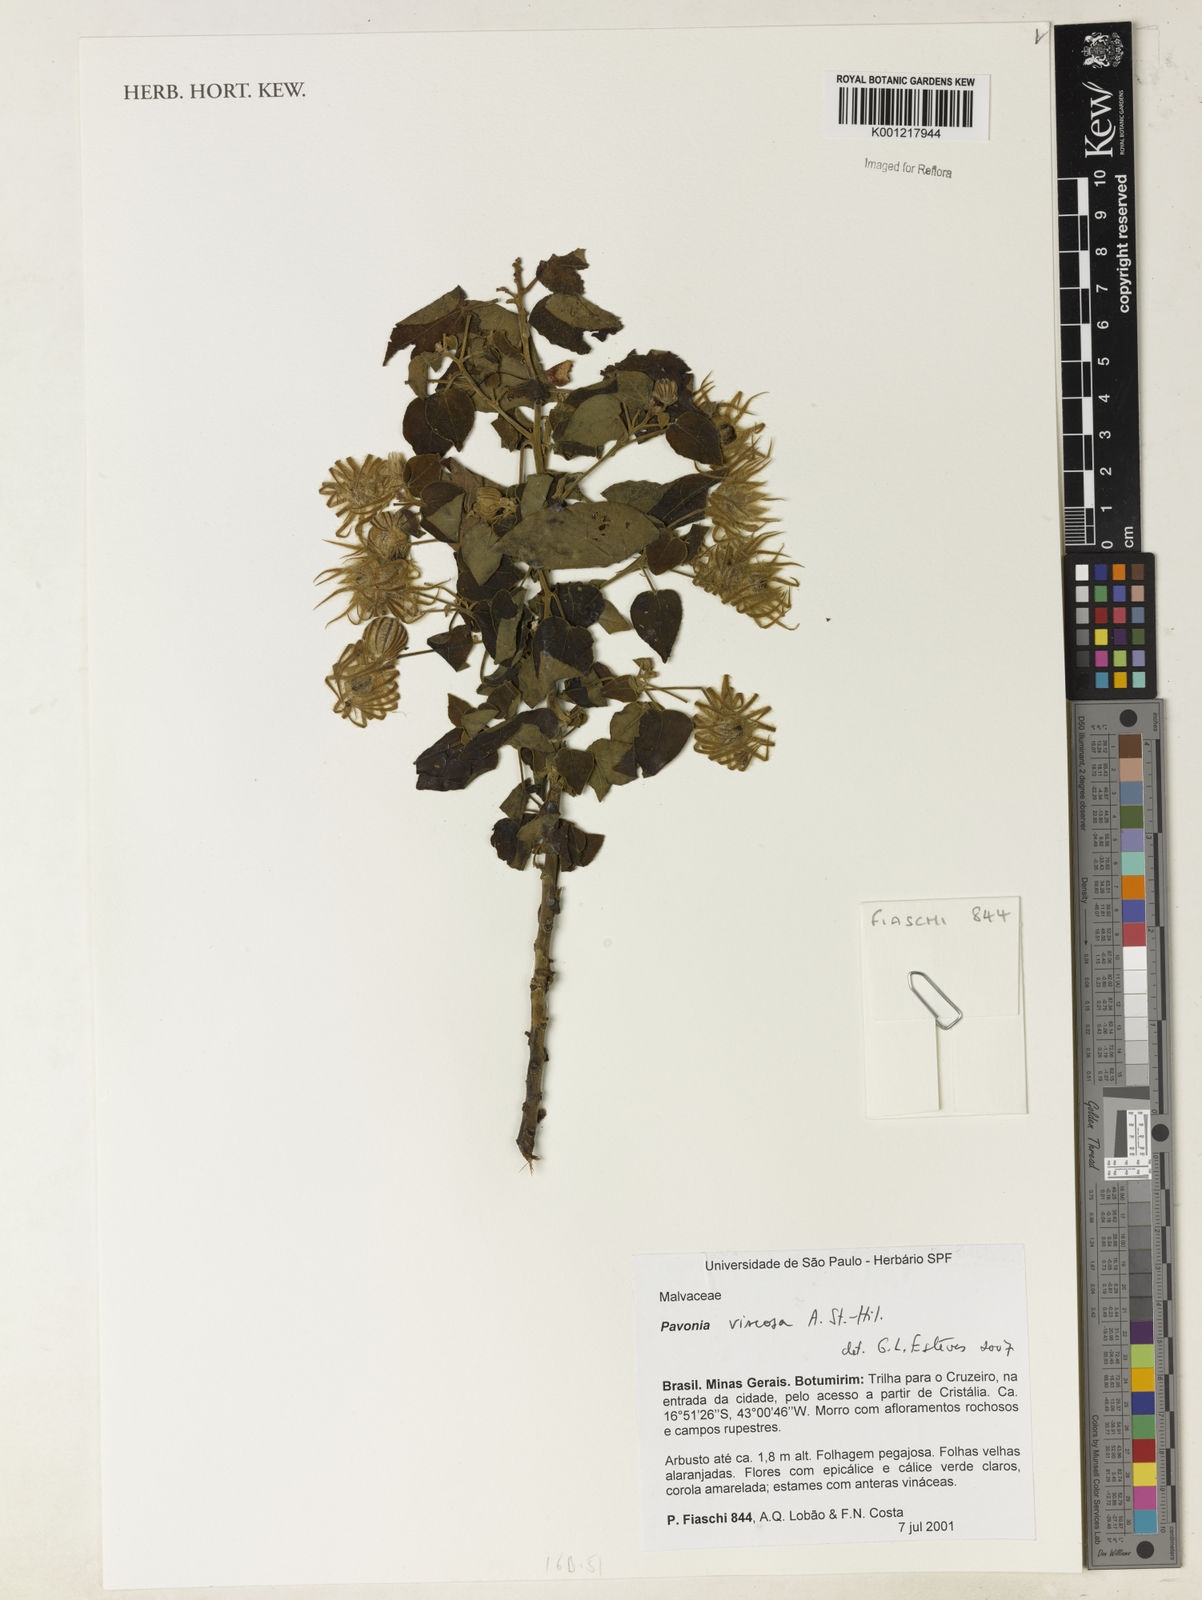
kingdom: Plantae
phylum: Tracheophyta
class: Magnoliopsida
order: Malvales
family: Malvaceae
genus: Pavonia
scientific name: Pavonia viscosa
